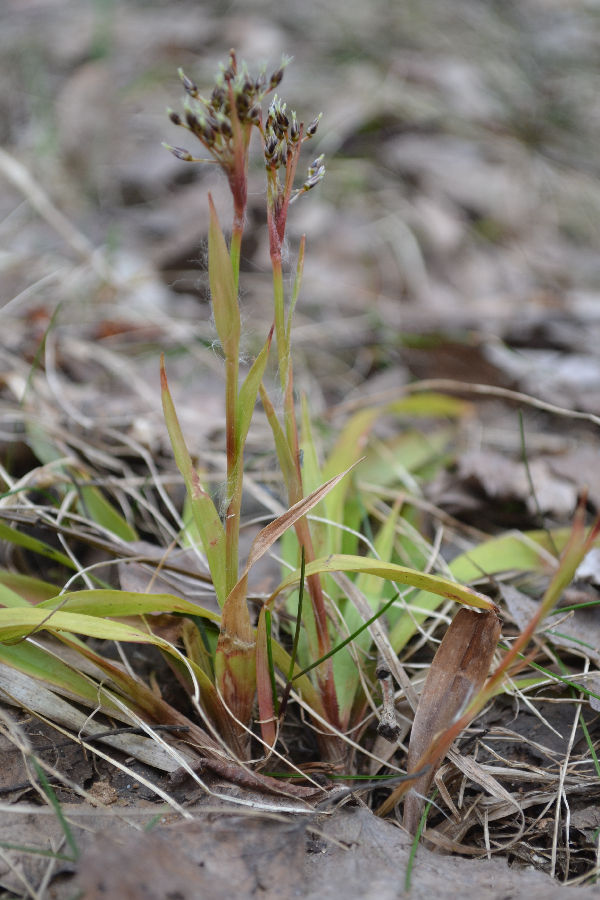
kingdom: Plantae
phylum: Tracheophyta
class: Liliopsida
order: Poales
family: Juncaceae
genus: Luzula
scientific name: Luzula pilosa
